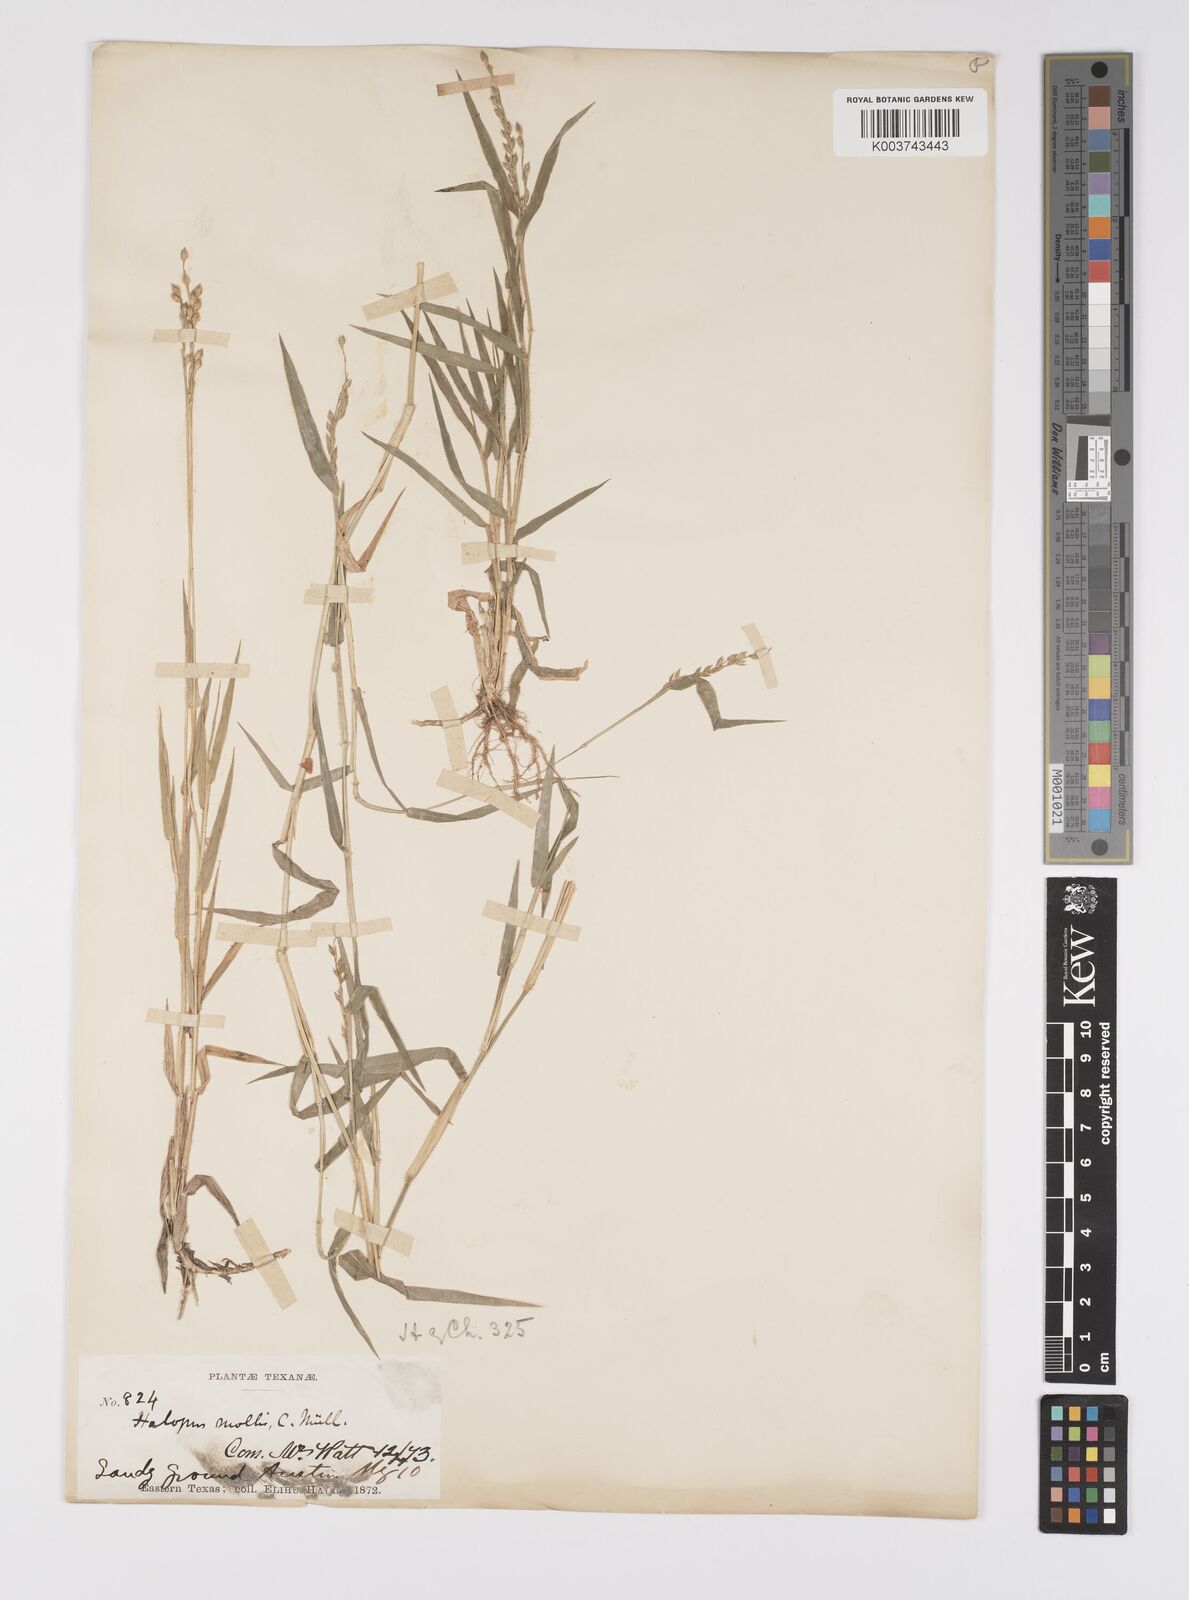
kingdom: Plantae
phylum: Tracheophyta
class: Liliopsida
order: Poales
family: Poaceae
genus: Urochloa
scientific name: Urochloa ciliatissima
